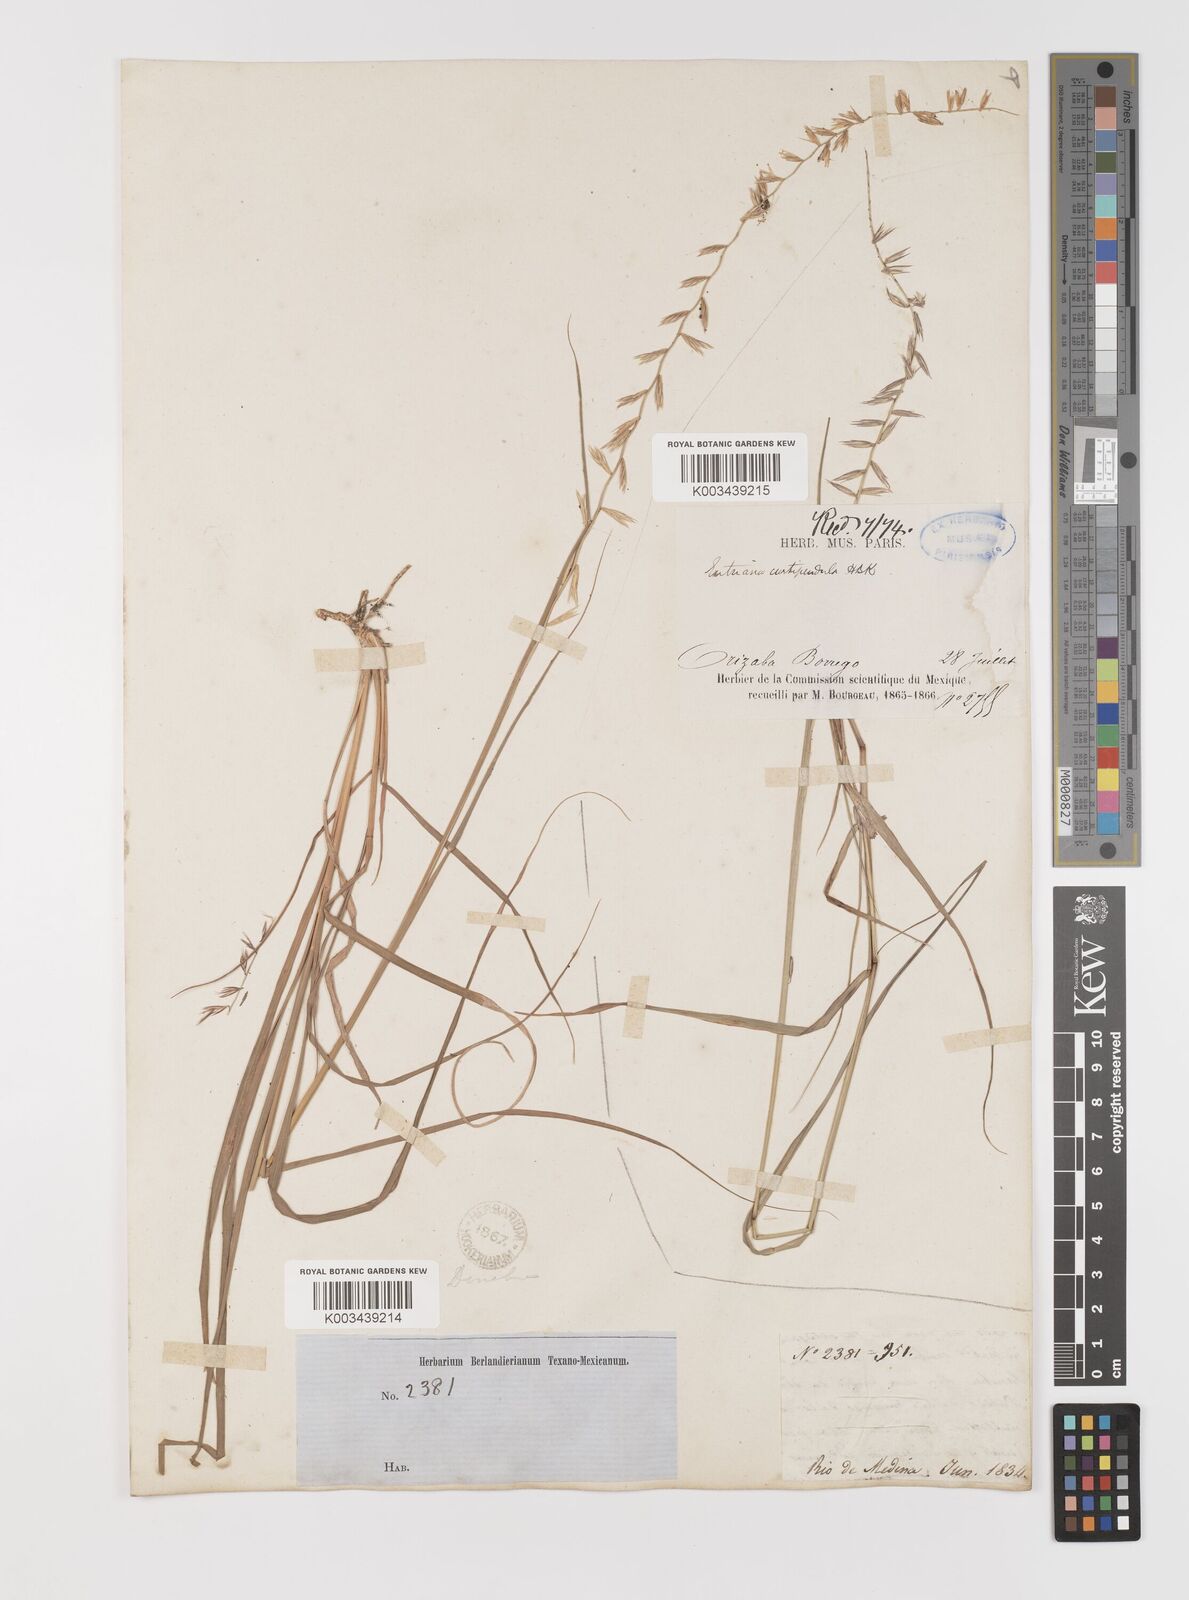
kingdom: Plantae
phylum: Tracheophyta
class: Liliopsida
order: Poales
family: Poaceae
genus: Bouteloua
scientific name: Bouteloua curtipendula
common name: Side-oats grama
